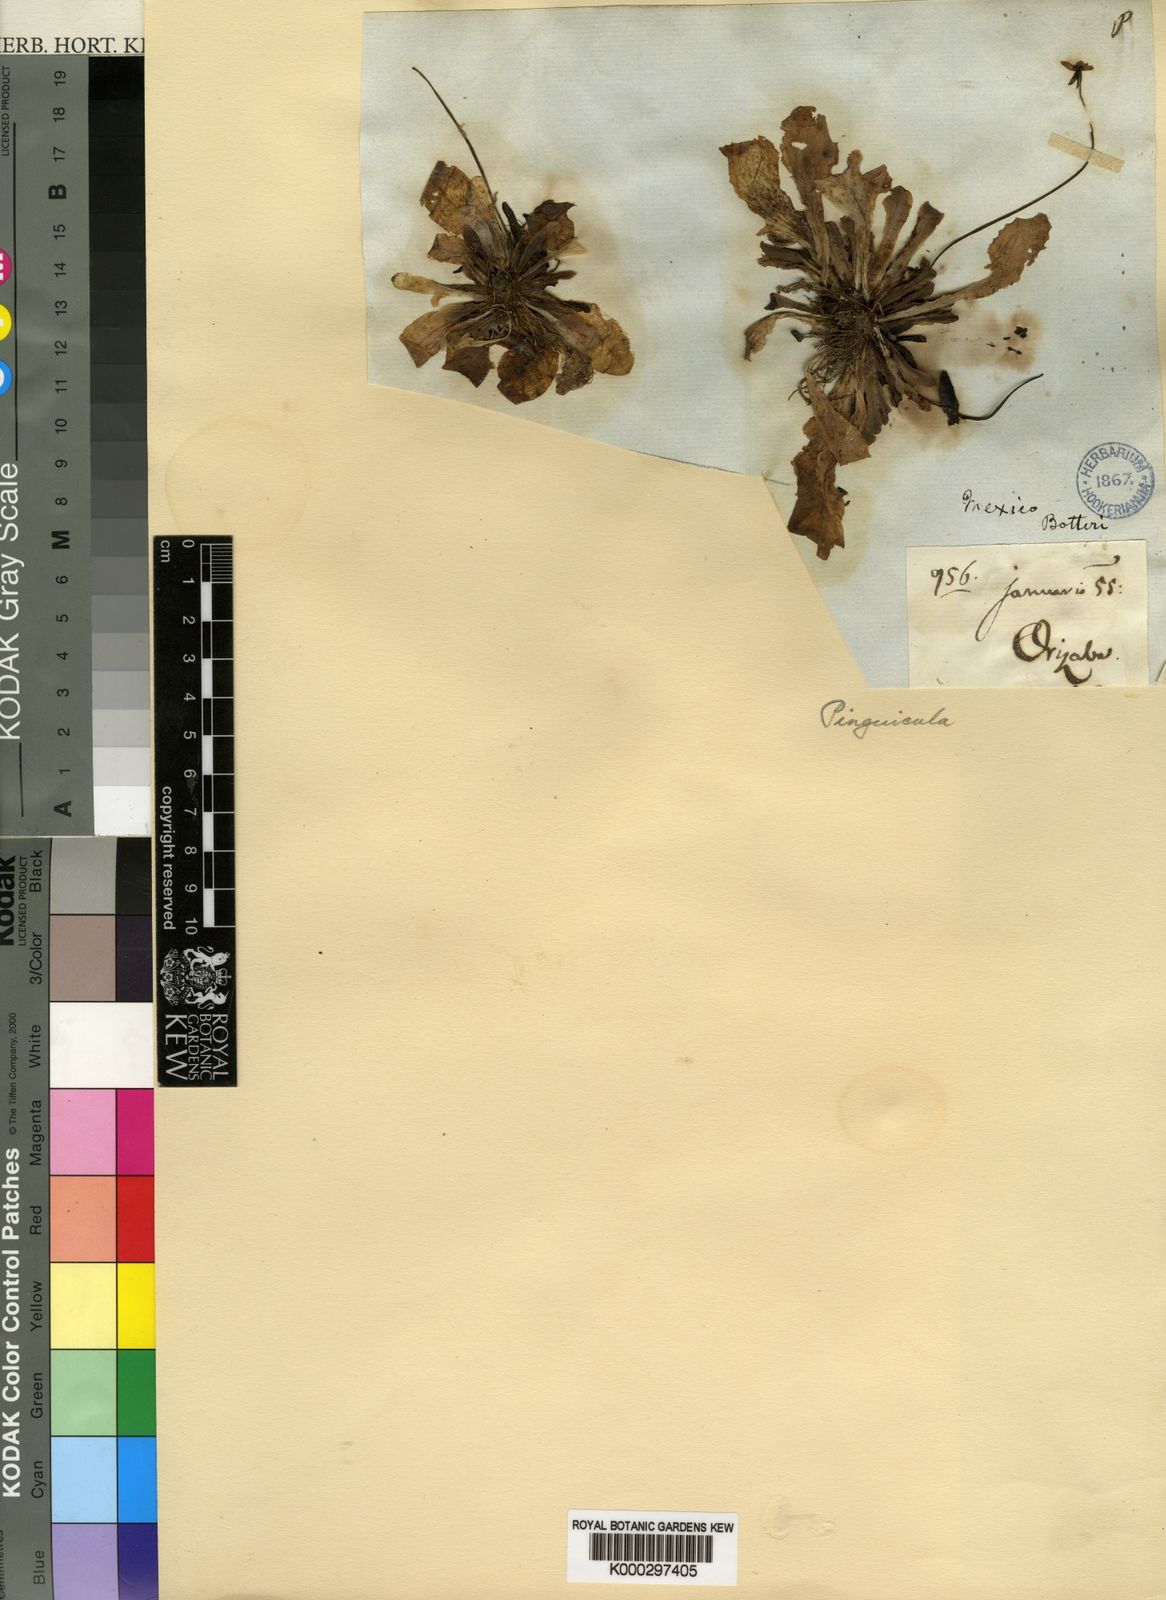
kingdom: Plantae
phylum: Tracheophyta
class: Magnoliopsida
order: Lamiales
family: Lentibulariaceae
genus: Pinguicula
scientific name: Pinguicula moranensis
